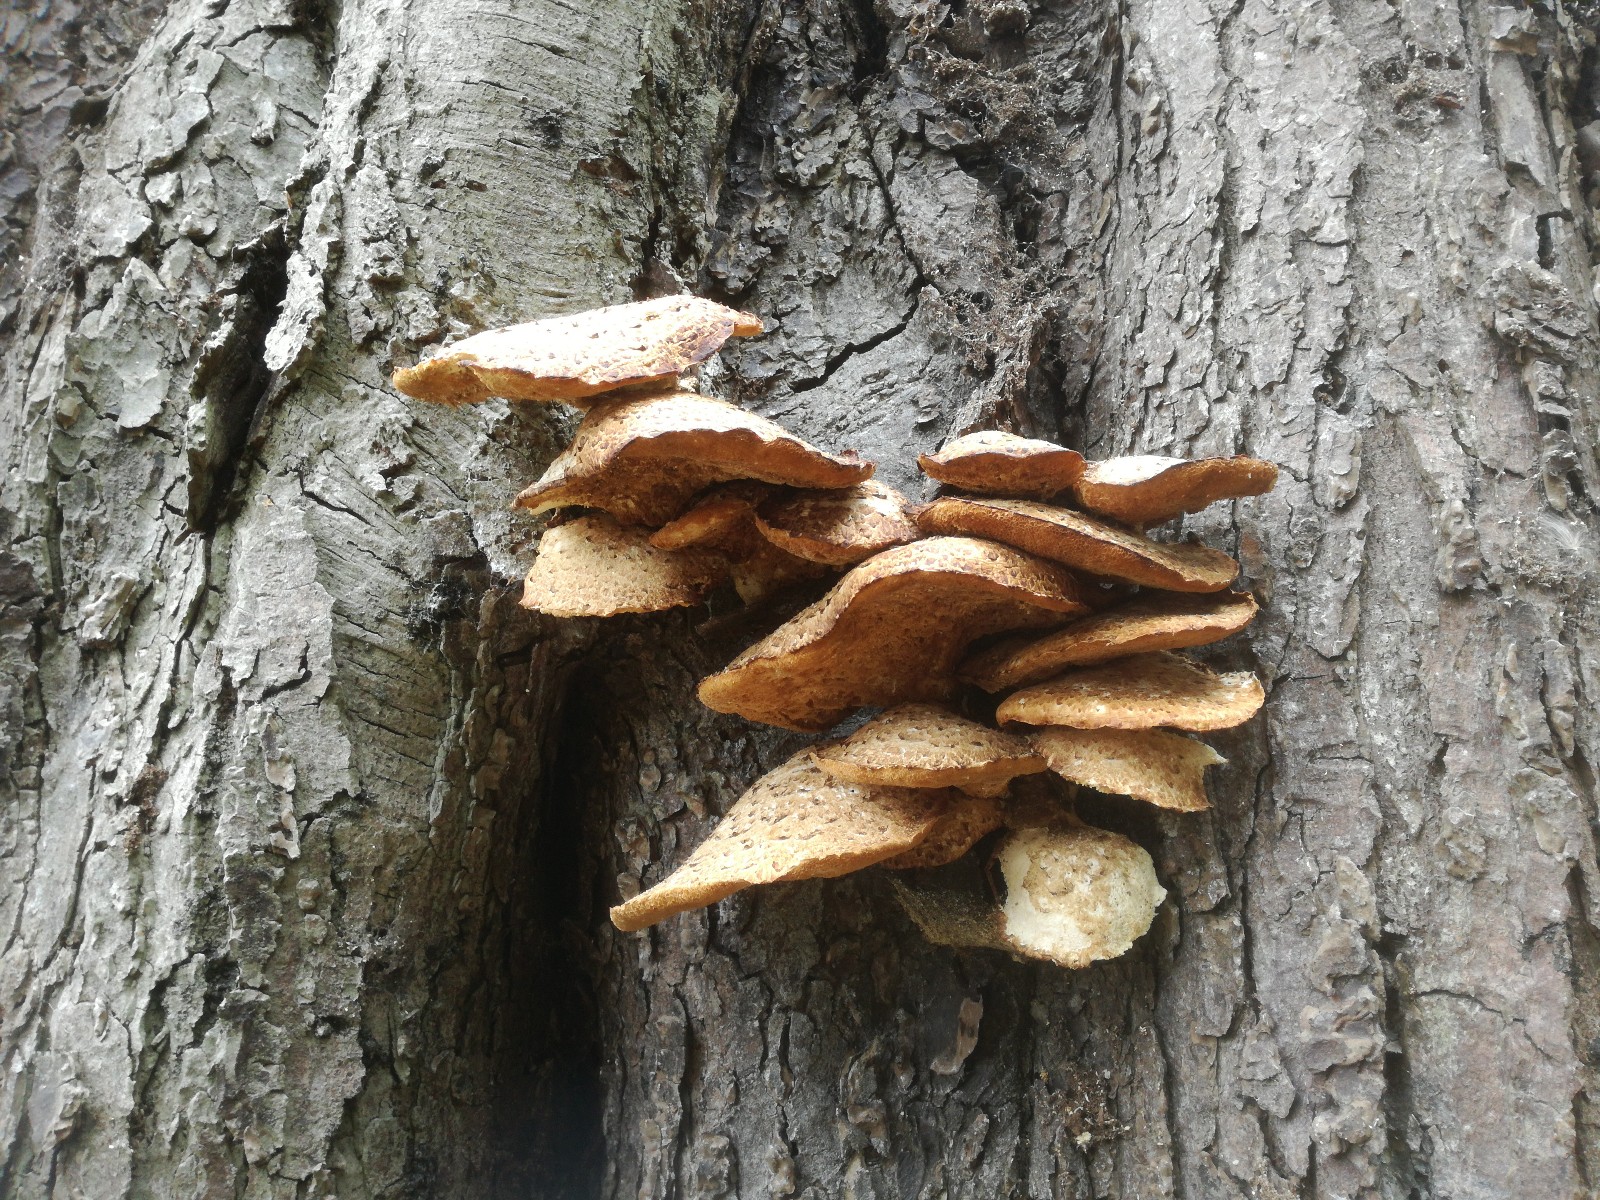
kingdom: Fungi
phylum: Basidiomycota
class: Agaricomycetes
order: Polyporales
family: Polyporaceae
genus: Cerioporus
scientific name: Cerioporus squamosus
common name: skællet stilkporesvamp
